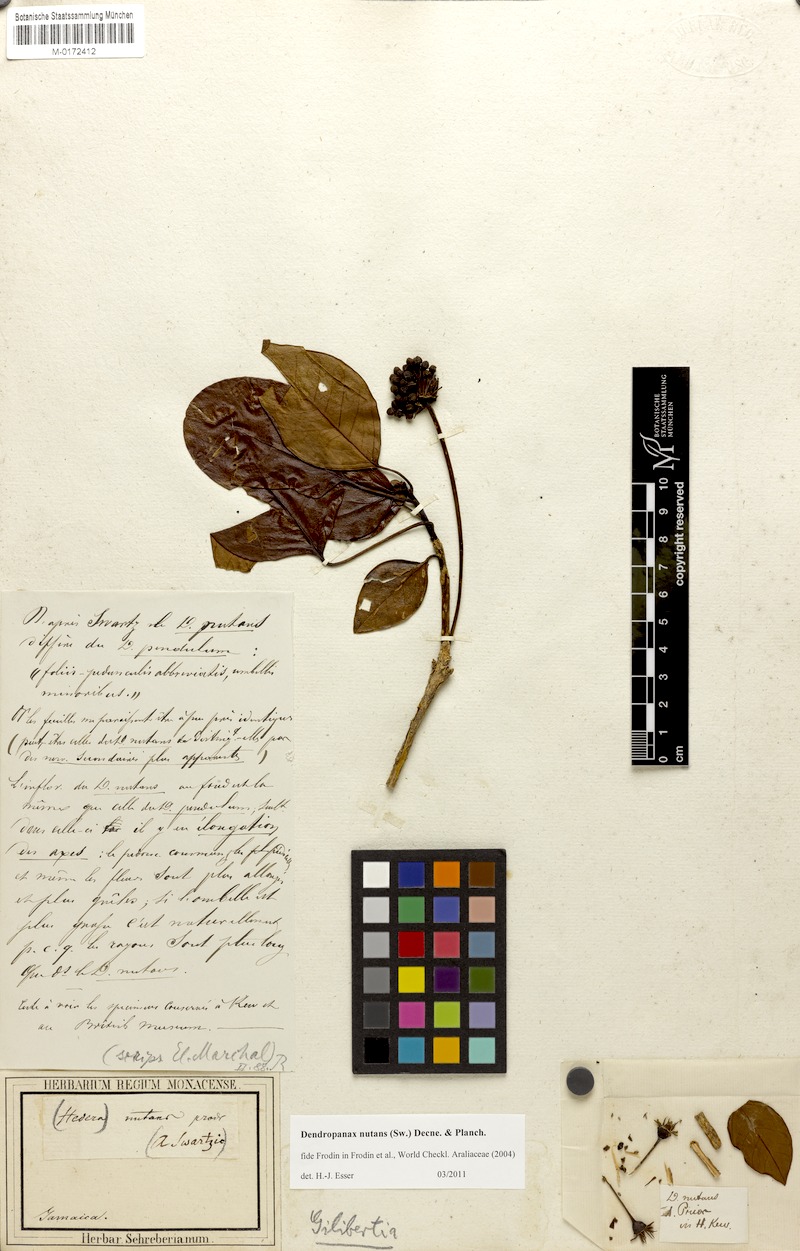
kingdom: Plantae
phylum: Tracheophyta
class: Magnoliopsida
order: Apiales
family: Araliaceae
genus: Dendropanax
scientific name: Dendropanax nutans
